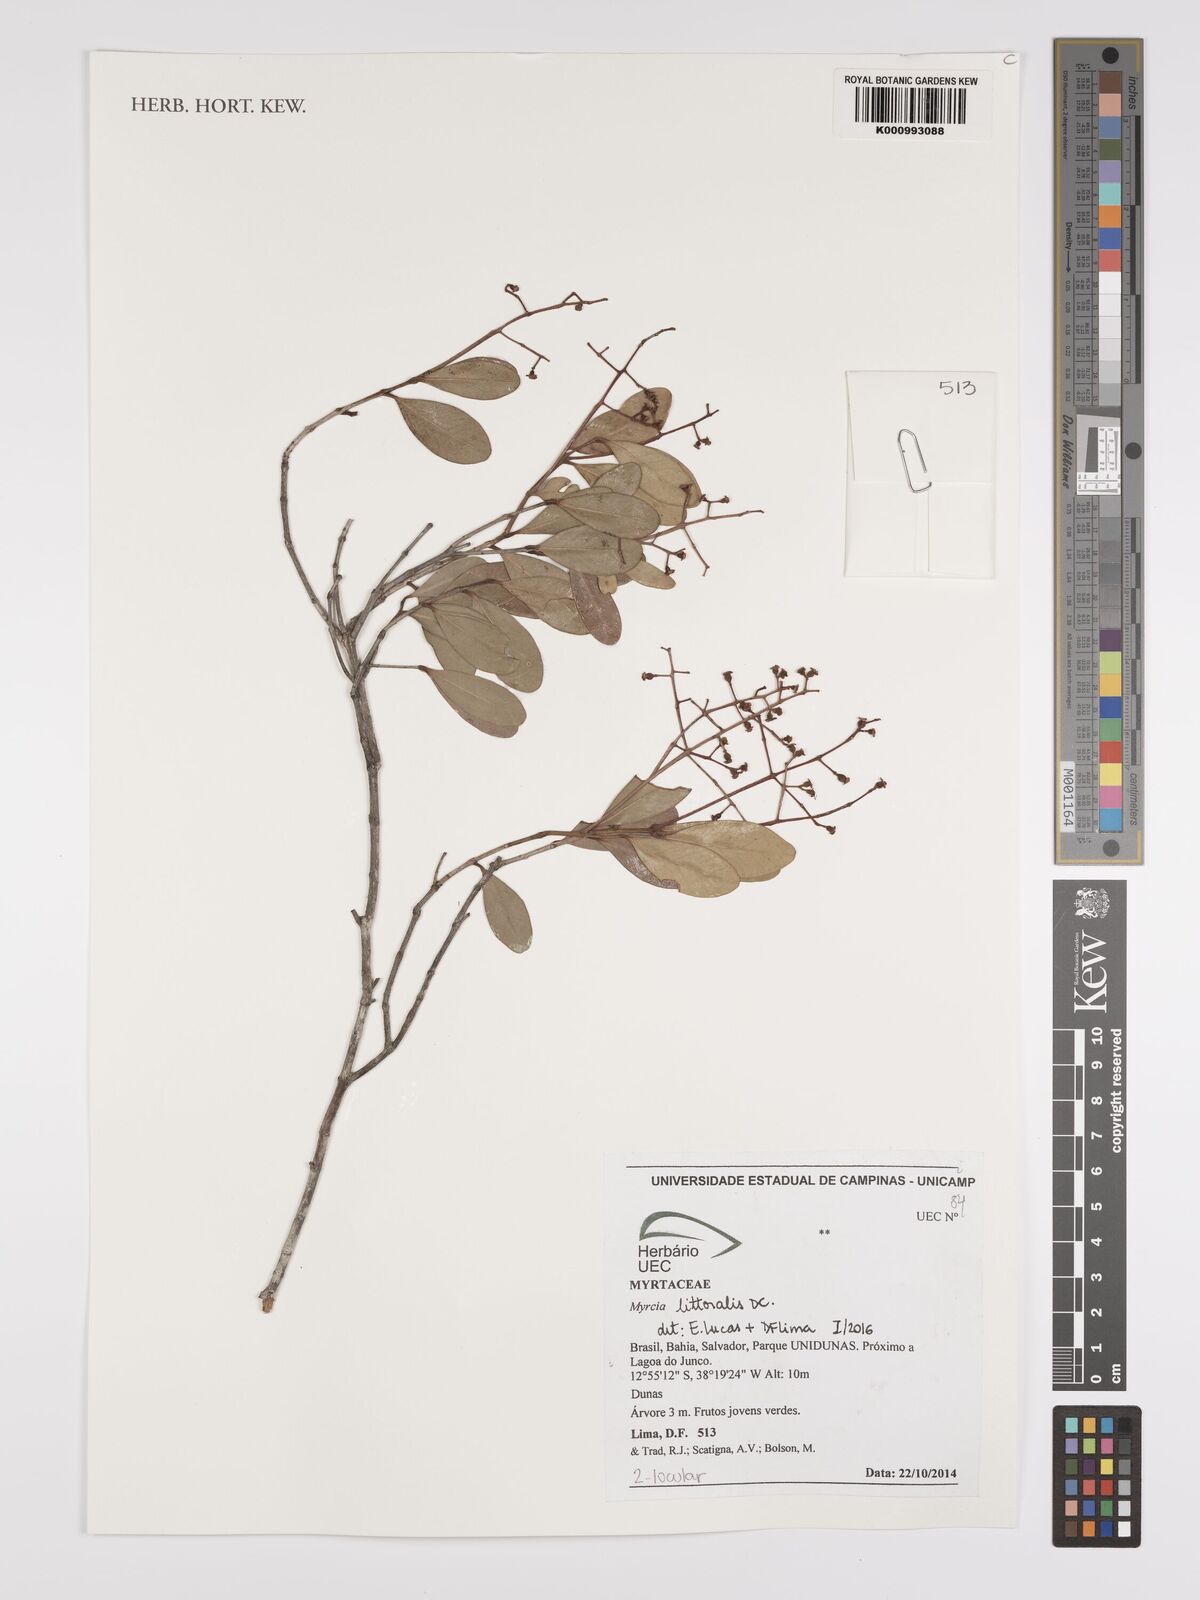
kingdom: Plantae
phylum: Tracheophyta
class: Magnoliopsida
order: Myrtales
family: Myrtaceae
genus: Myrcia
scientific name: Myrcia littoralis
